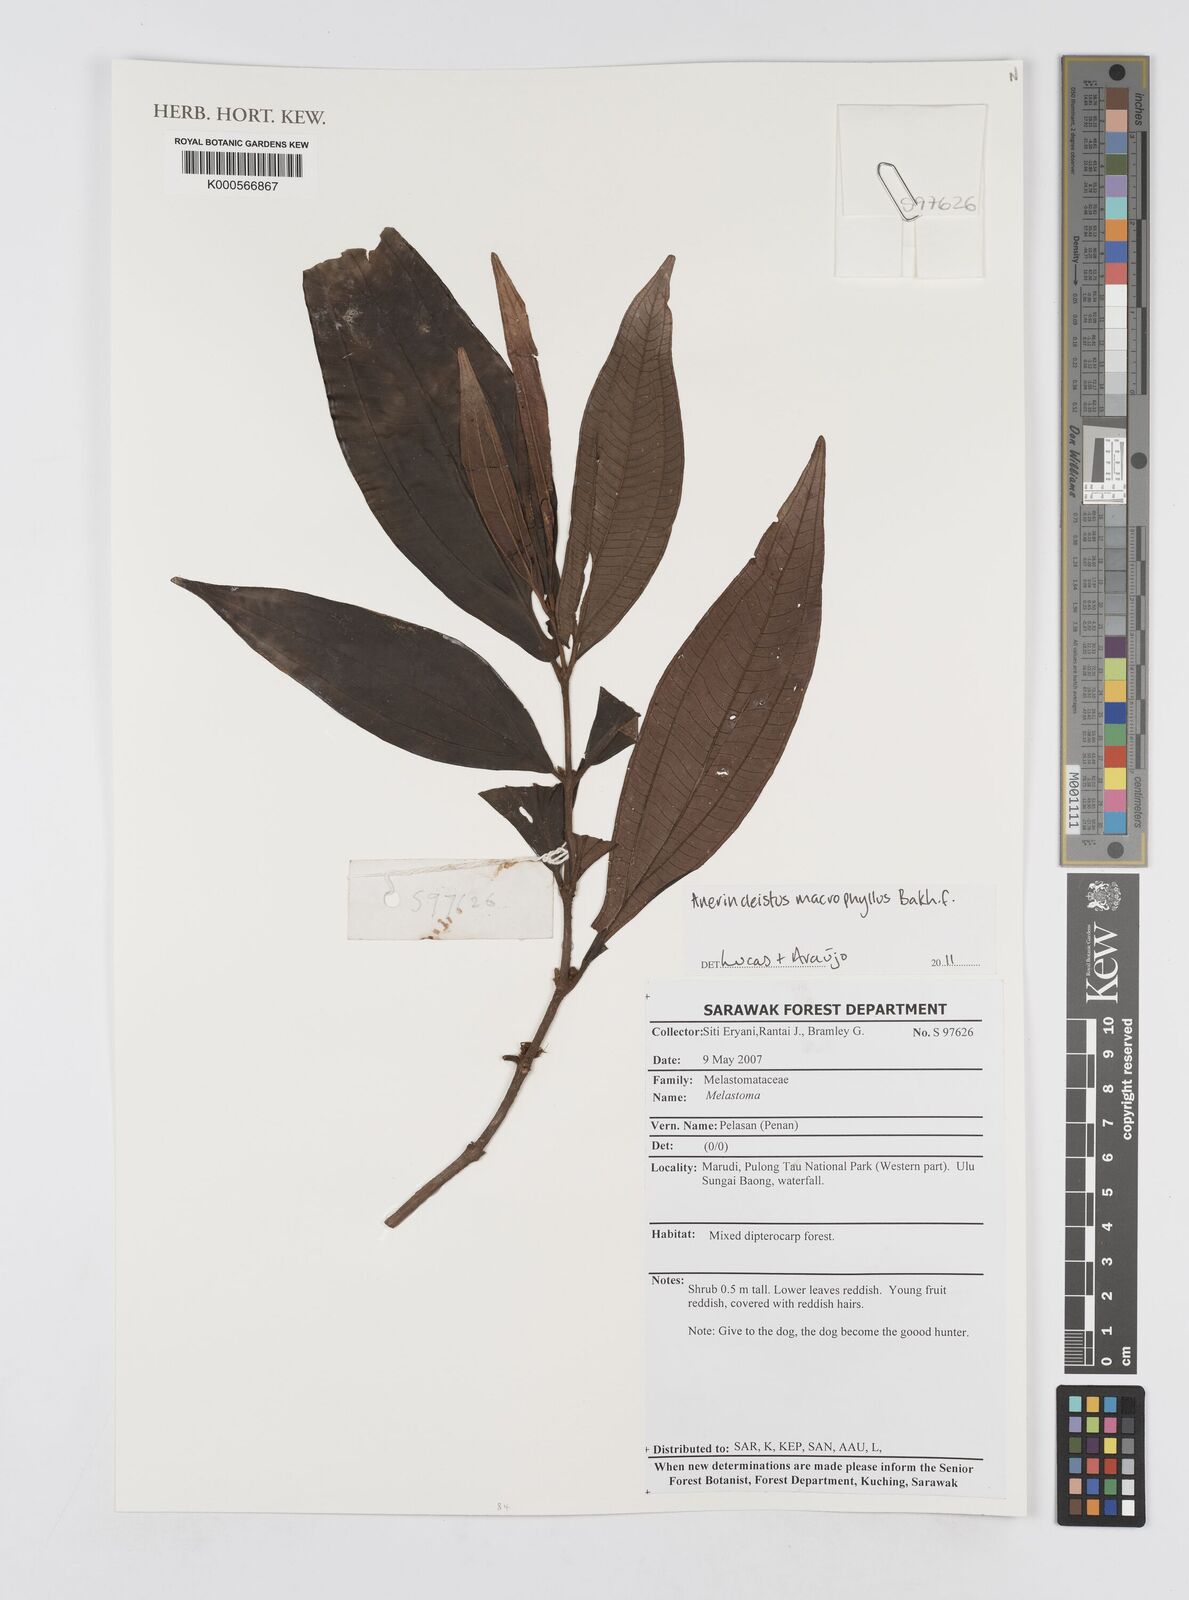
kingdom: Plantae
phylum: Tracheophyta
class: Magnoliopsida
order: Myrtales
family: Melastomataceae
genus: Anerincleistus
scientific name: Anerincleistus macrophyllus
